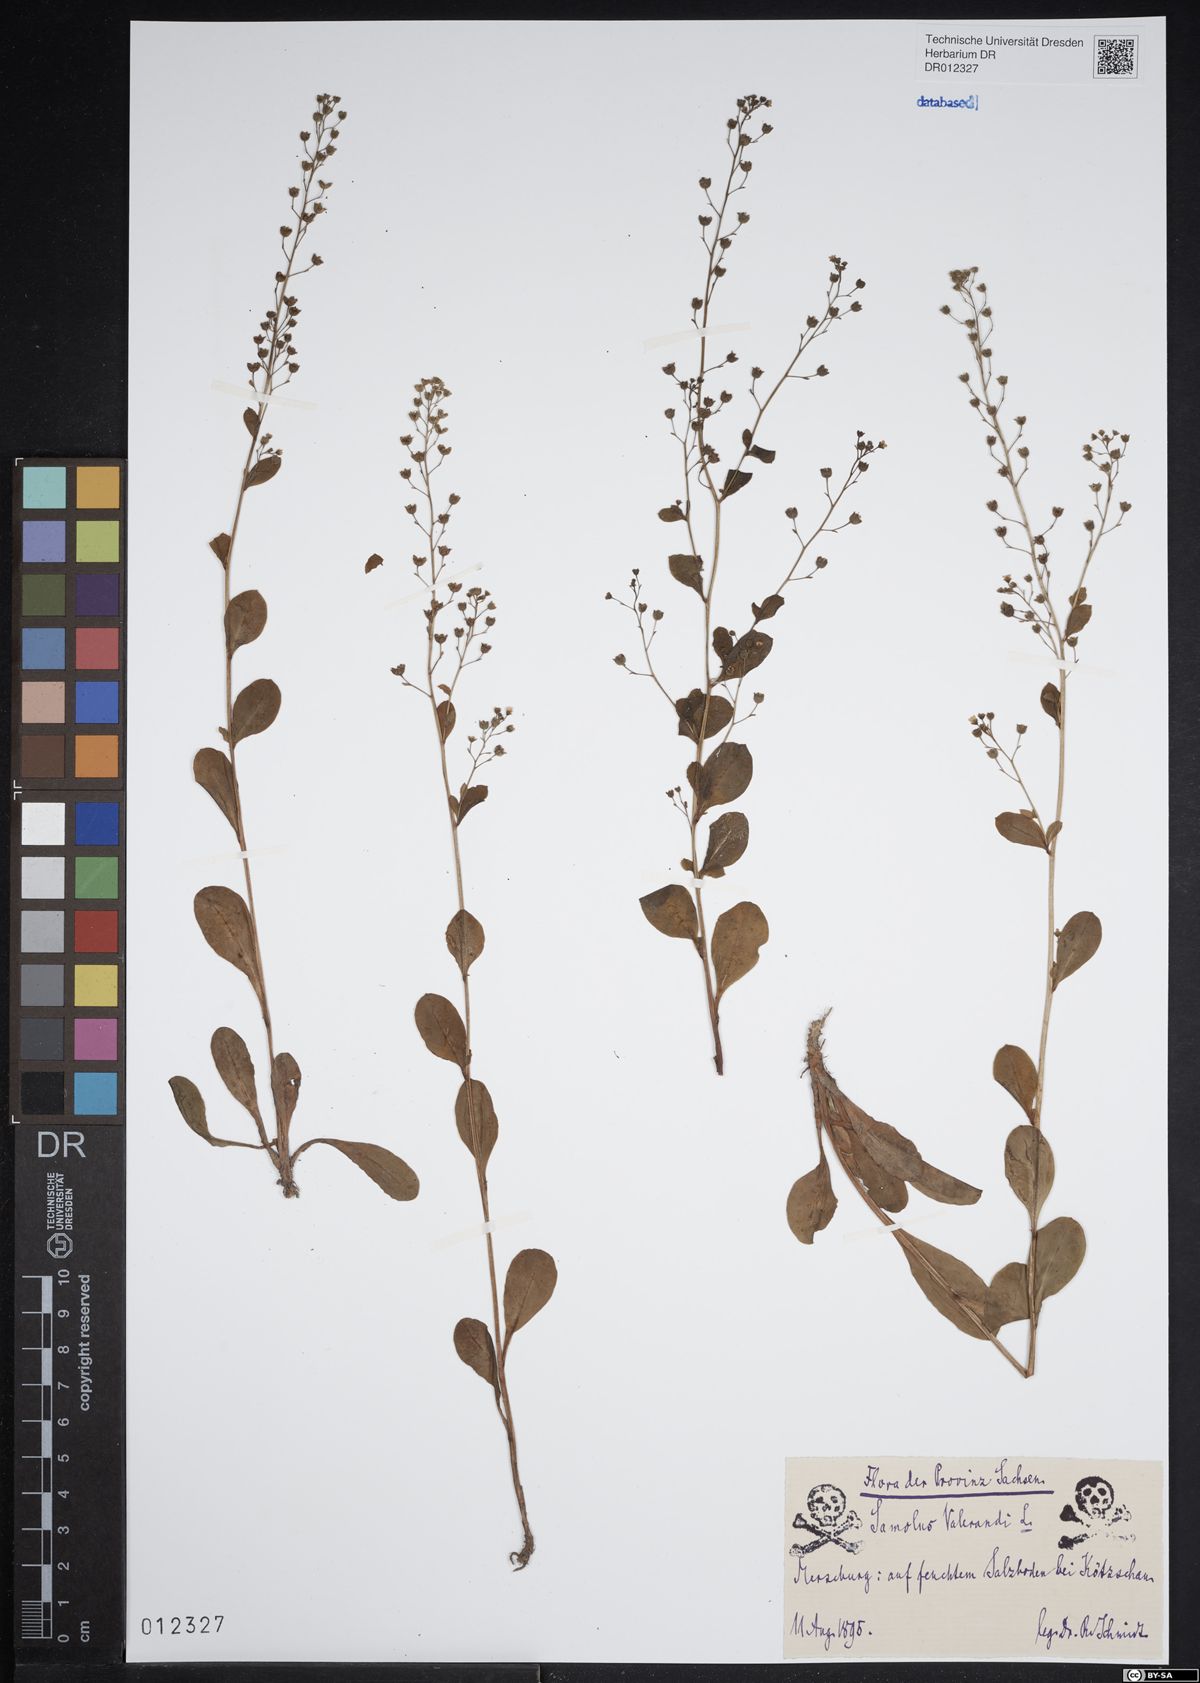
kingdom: Plantae
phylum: Tracheophyta
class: Magnoliopsida
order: Ericales
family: Primulaceae
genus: Samolus
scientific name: Samolus valerandi
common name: Brookweed
